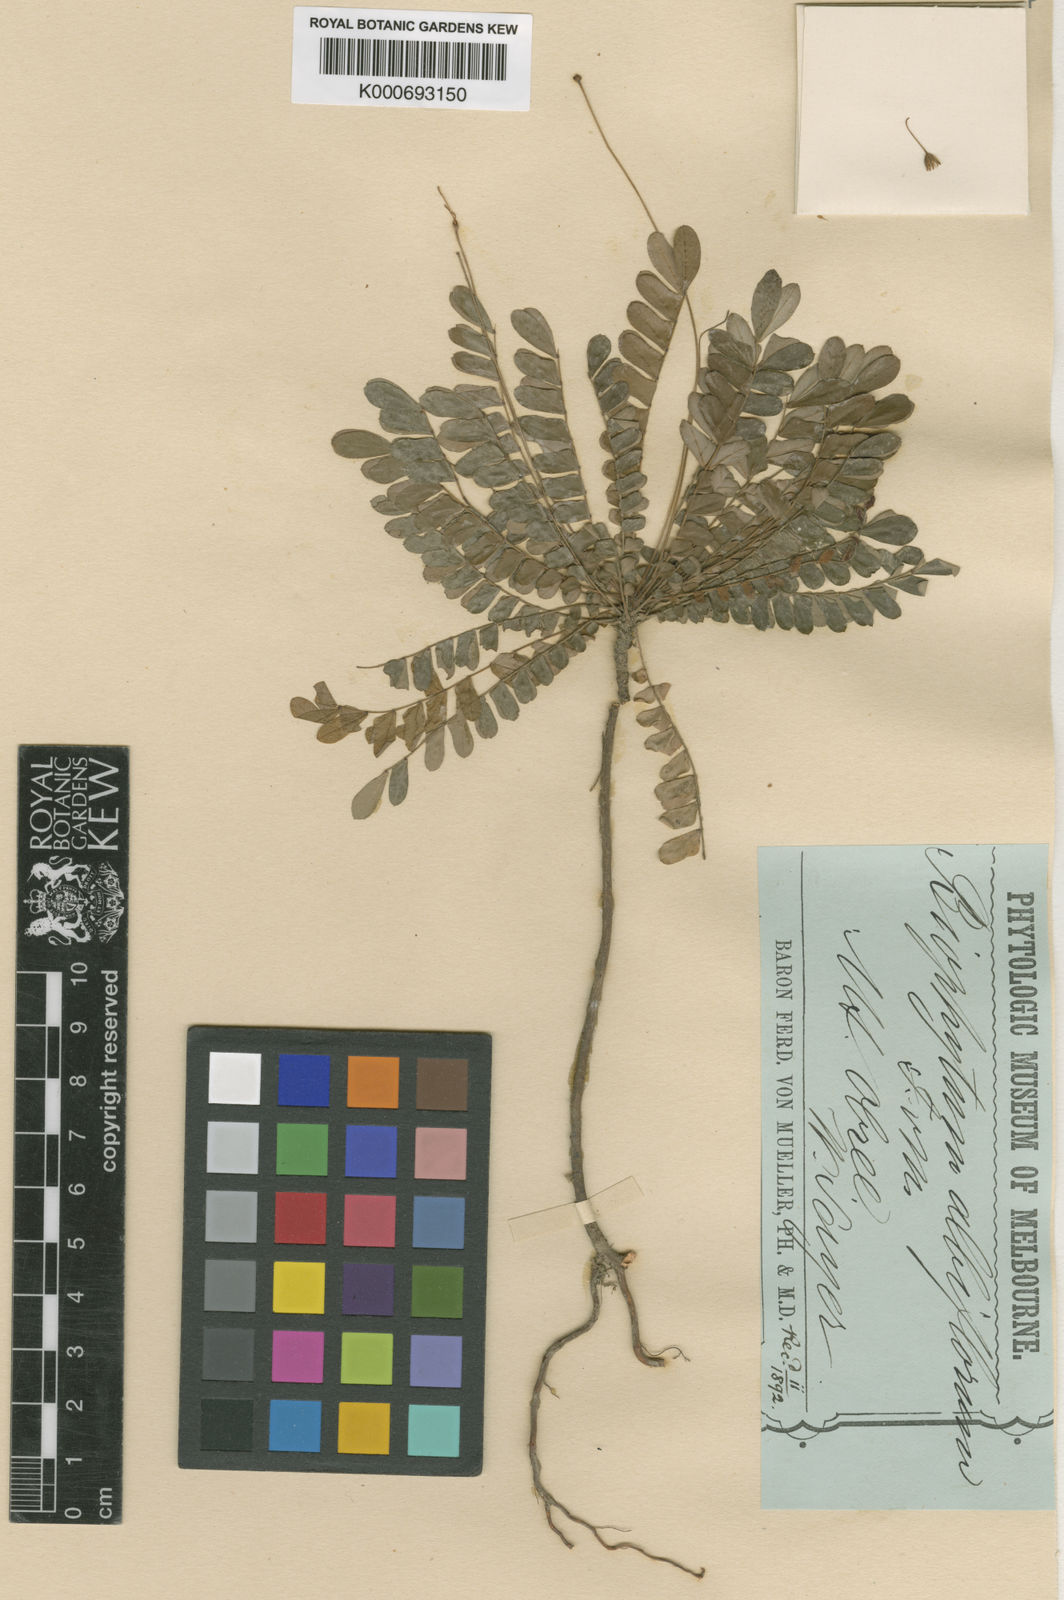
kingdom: Plantae
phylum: Tracheophyta
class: Magnoliopsida
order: Oxalidales
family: Oxalidaceae
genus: Biophytum
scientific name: Biophytum fruticosum
